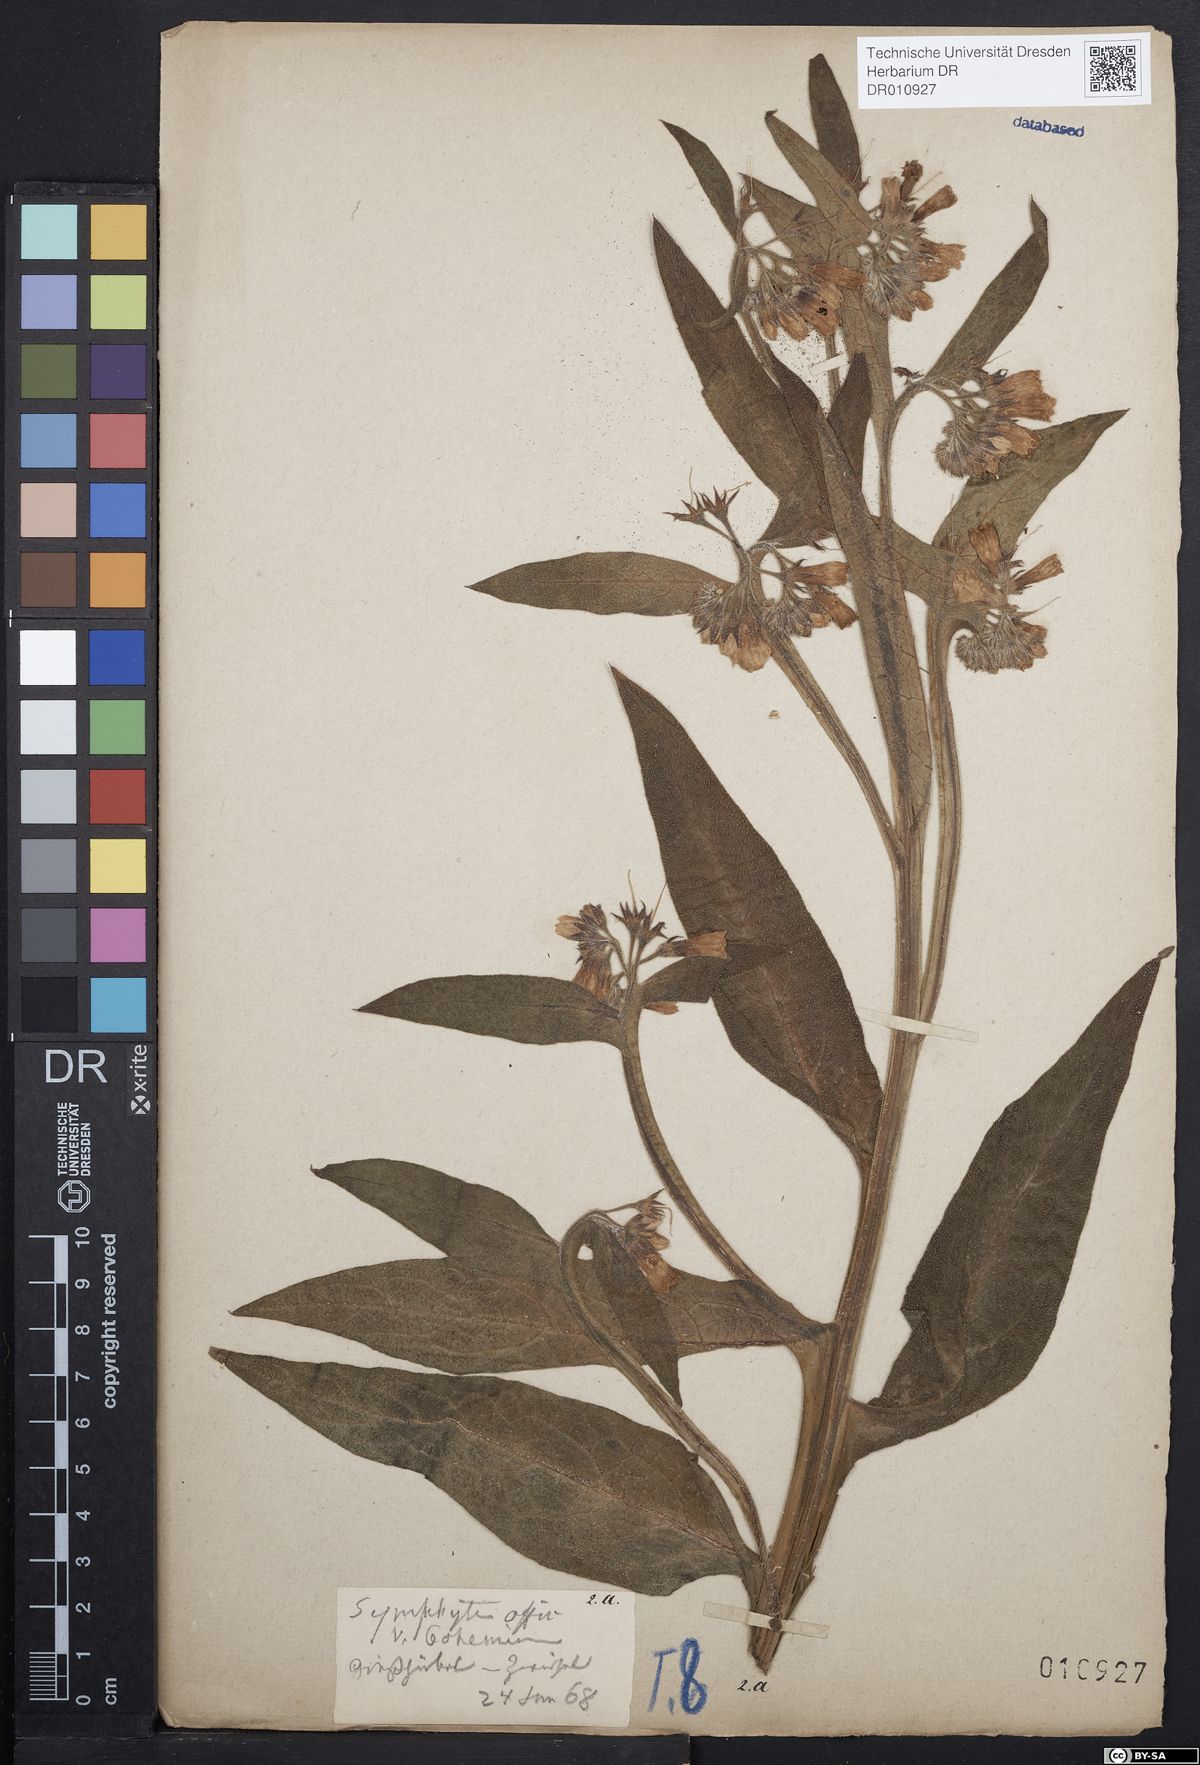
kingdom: Plantae
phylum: Tracheophyta
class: Magnoliopsida
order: Boraginales
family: Boraginaceae
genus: Symphytum
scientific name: Symphytum officinale
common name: Common comfrey
